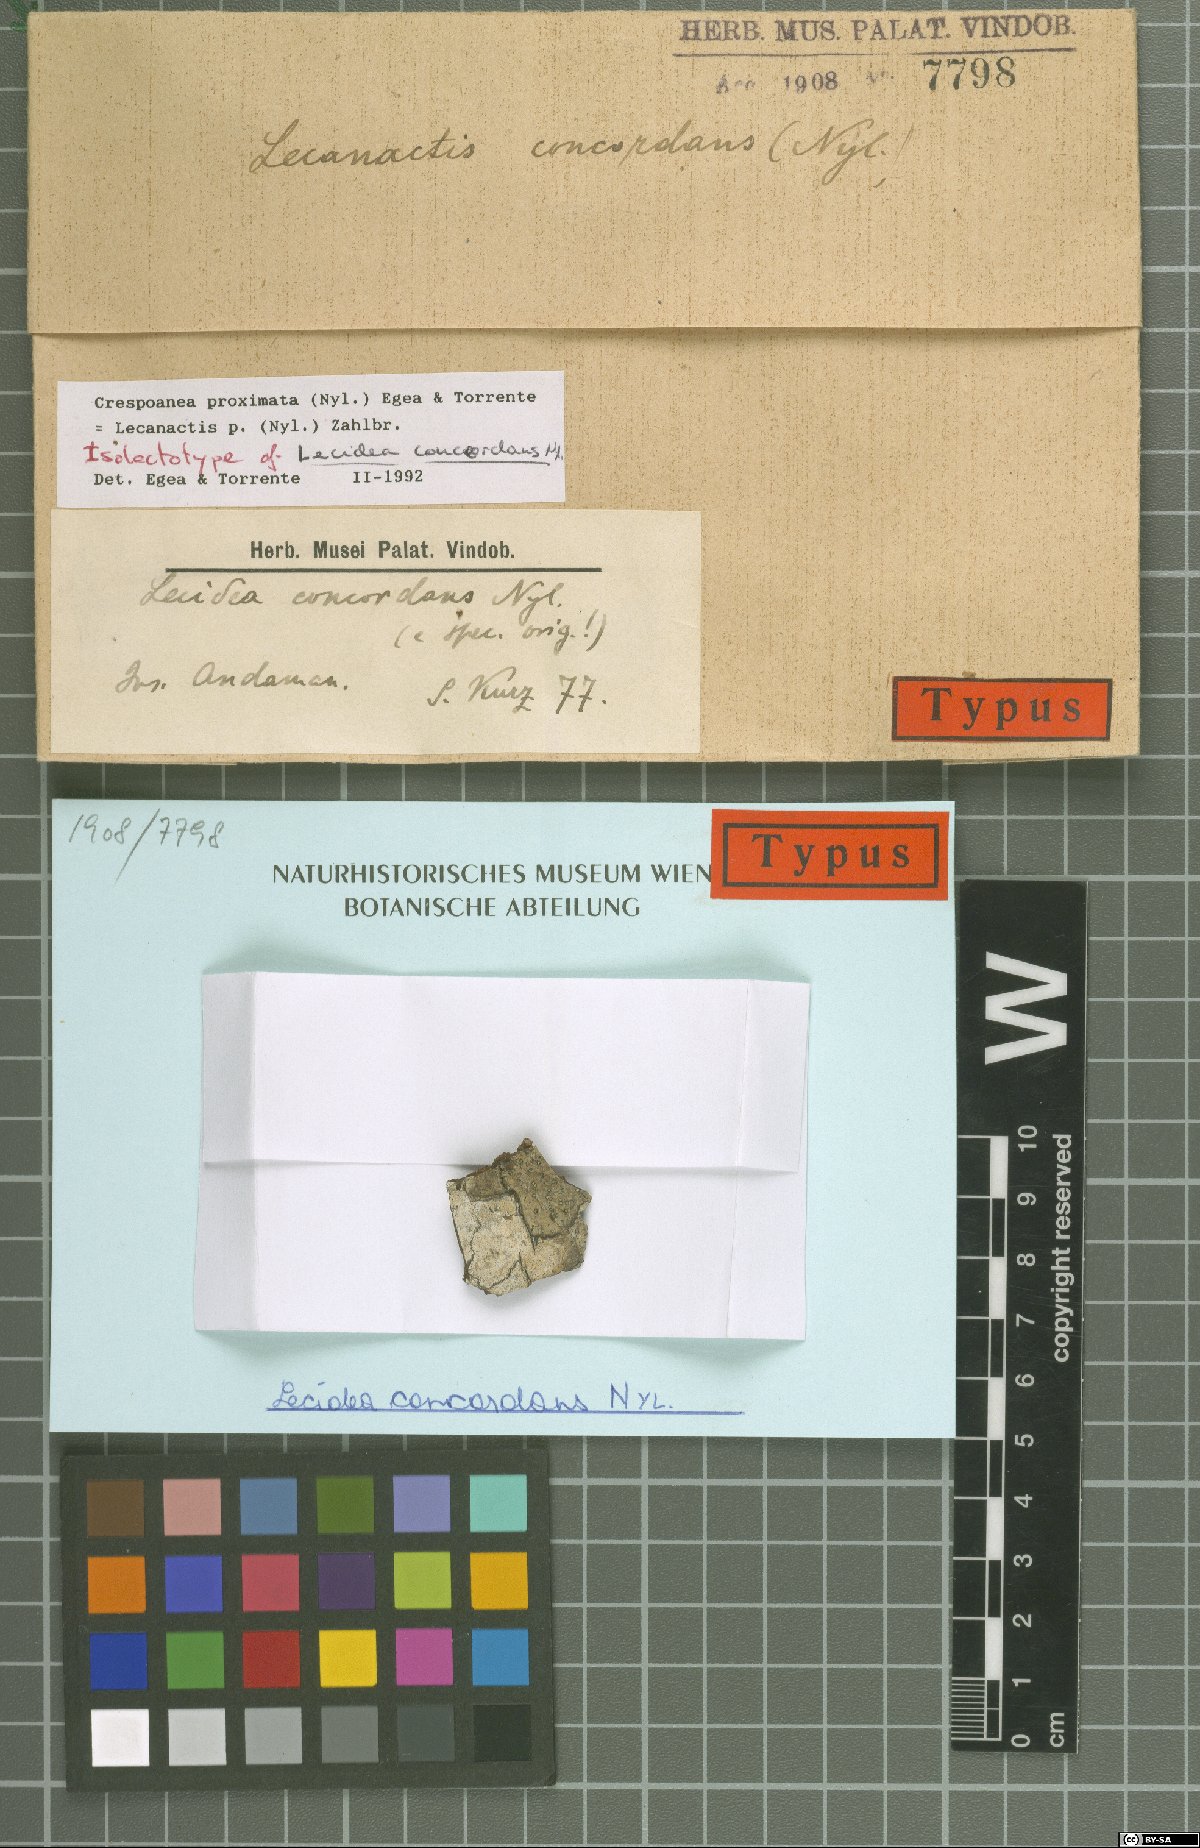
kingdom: Fungi
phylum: Ascomycota
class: Arthoniomycetes
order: Arthoniales
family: Opegraphaceae
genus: Cresponea
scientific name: Cresponea proximata
